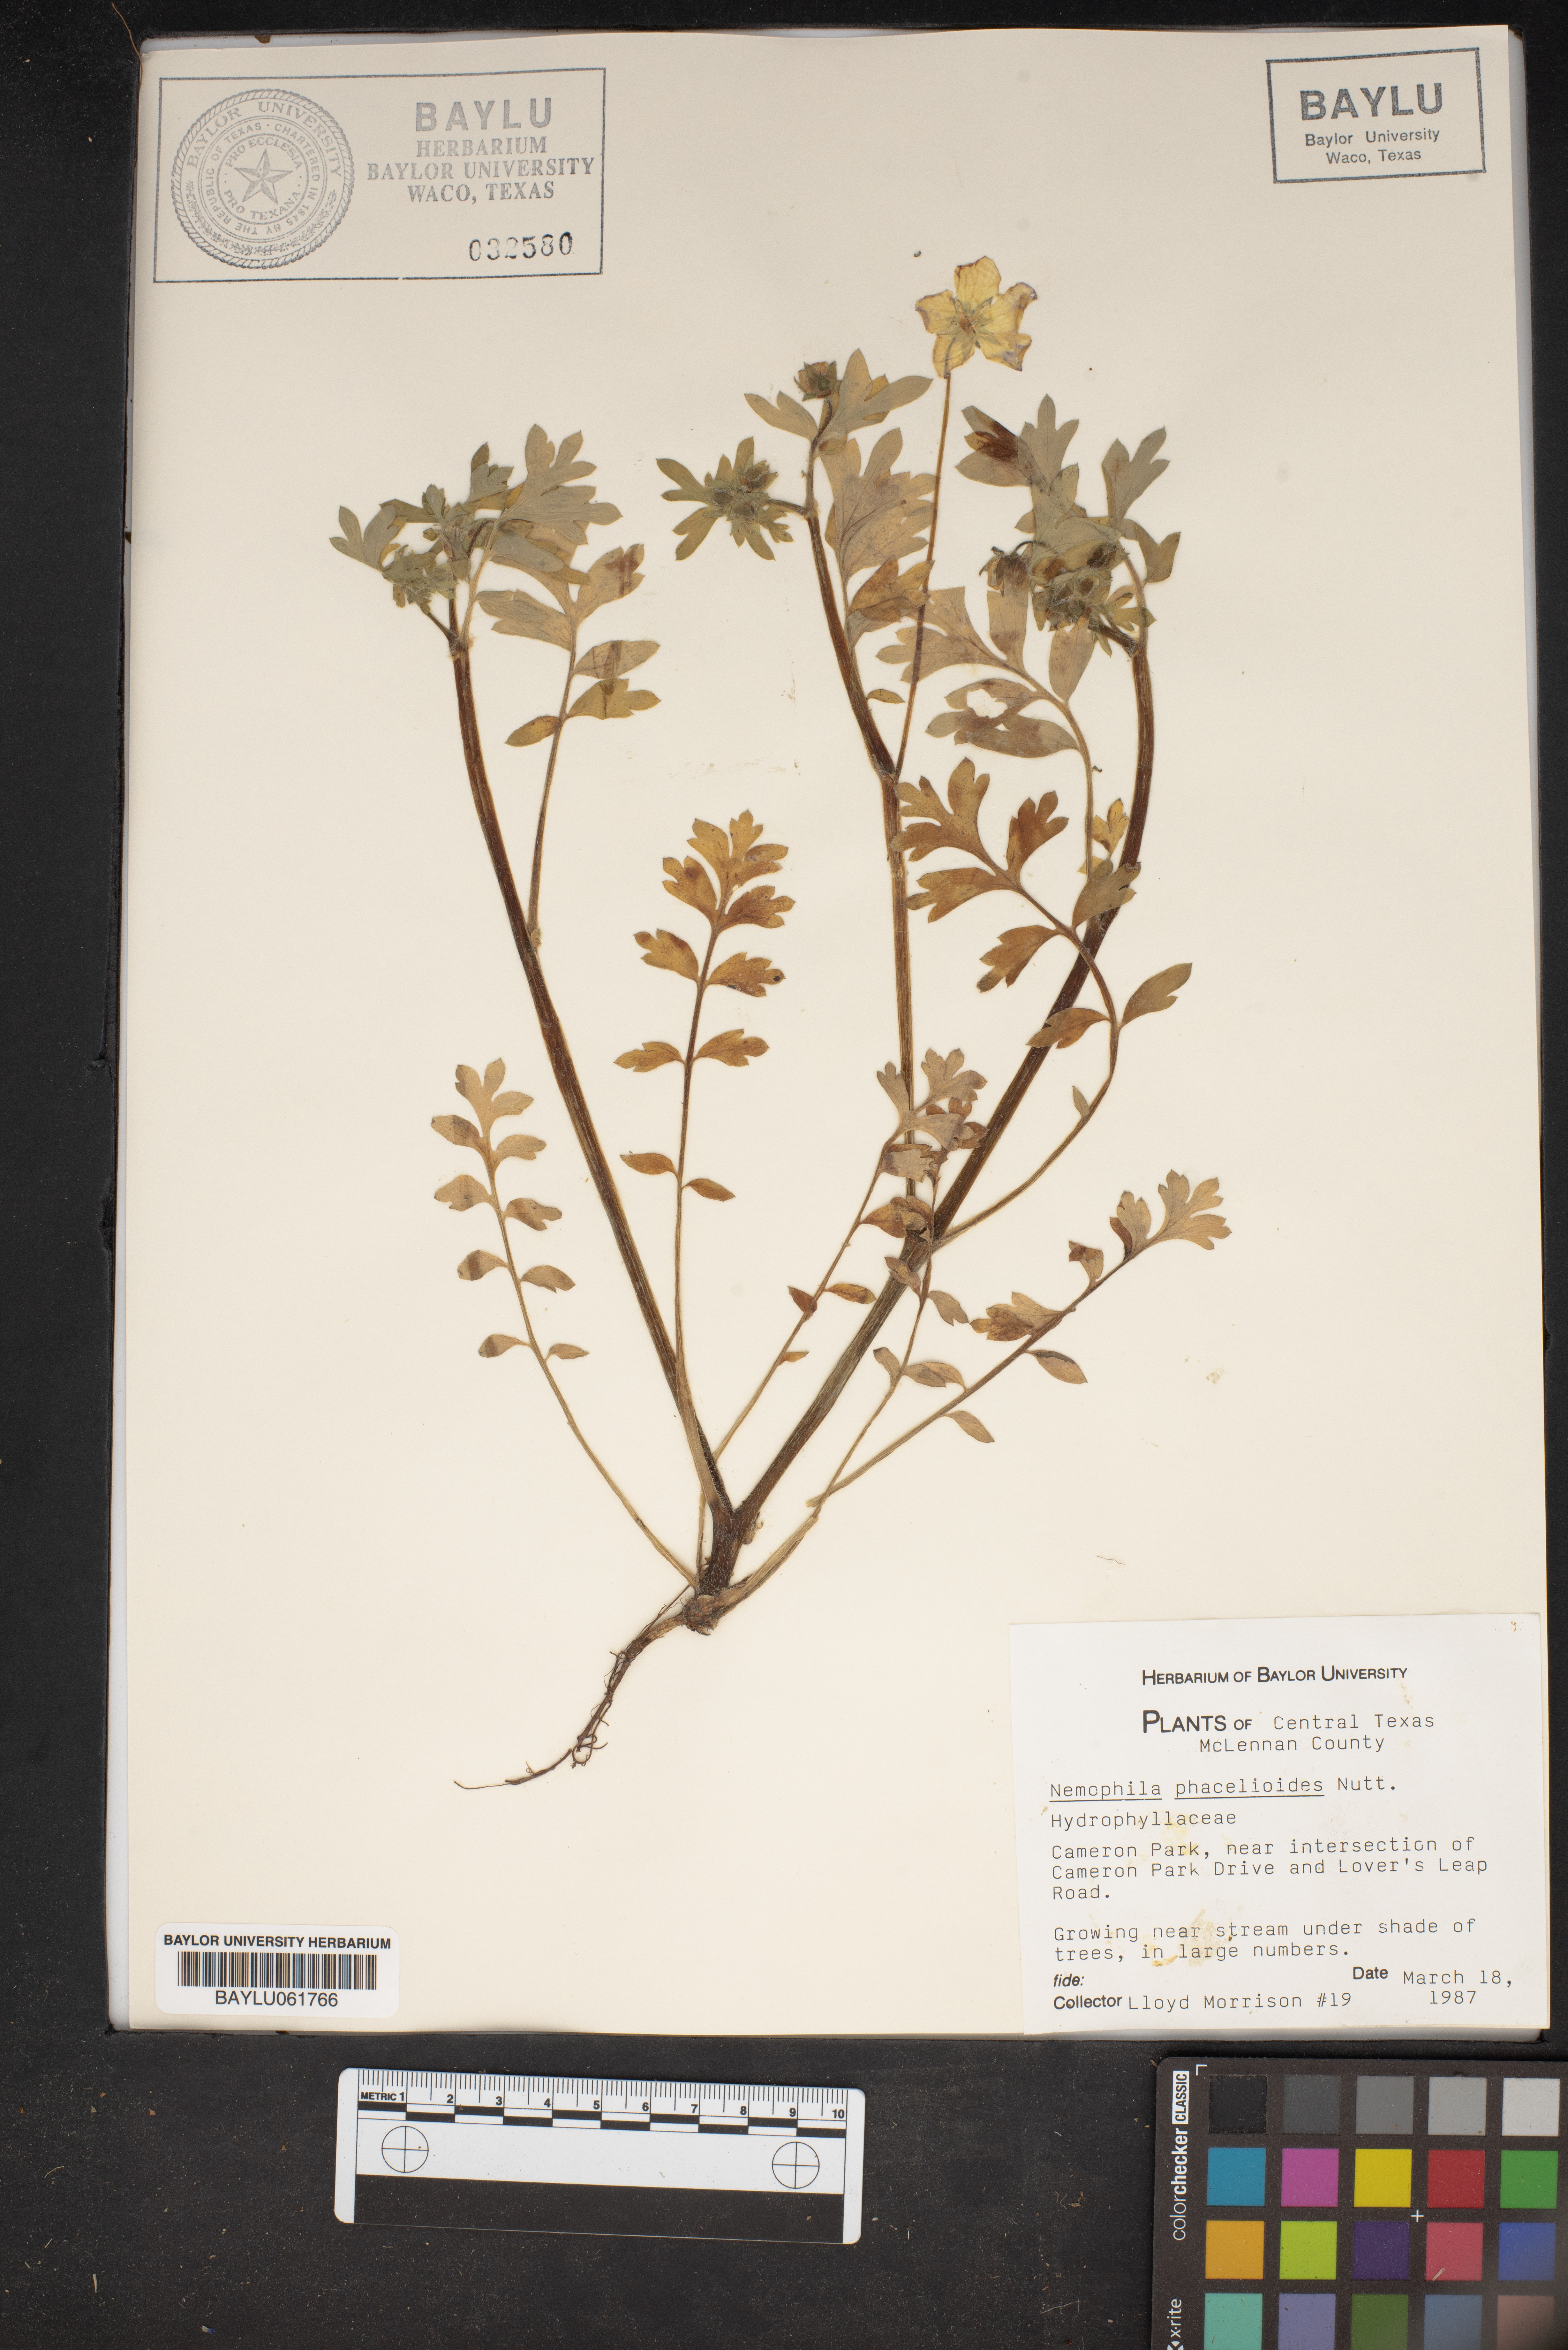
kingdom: Plantae
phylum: Tracheophyta
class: Magnoliopsida
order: Boraginales
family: Hydrophyllaceae
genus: Nemophila
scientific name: Nemophila phacelioides
